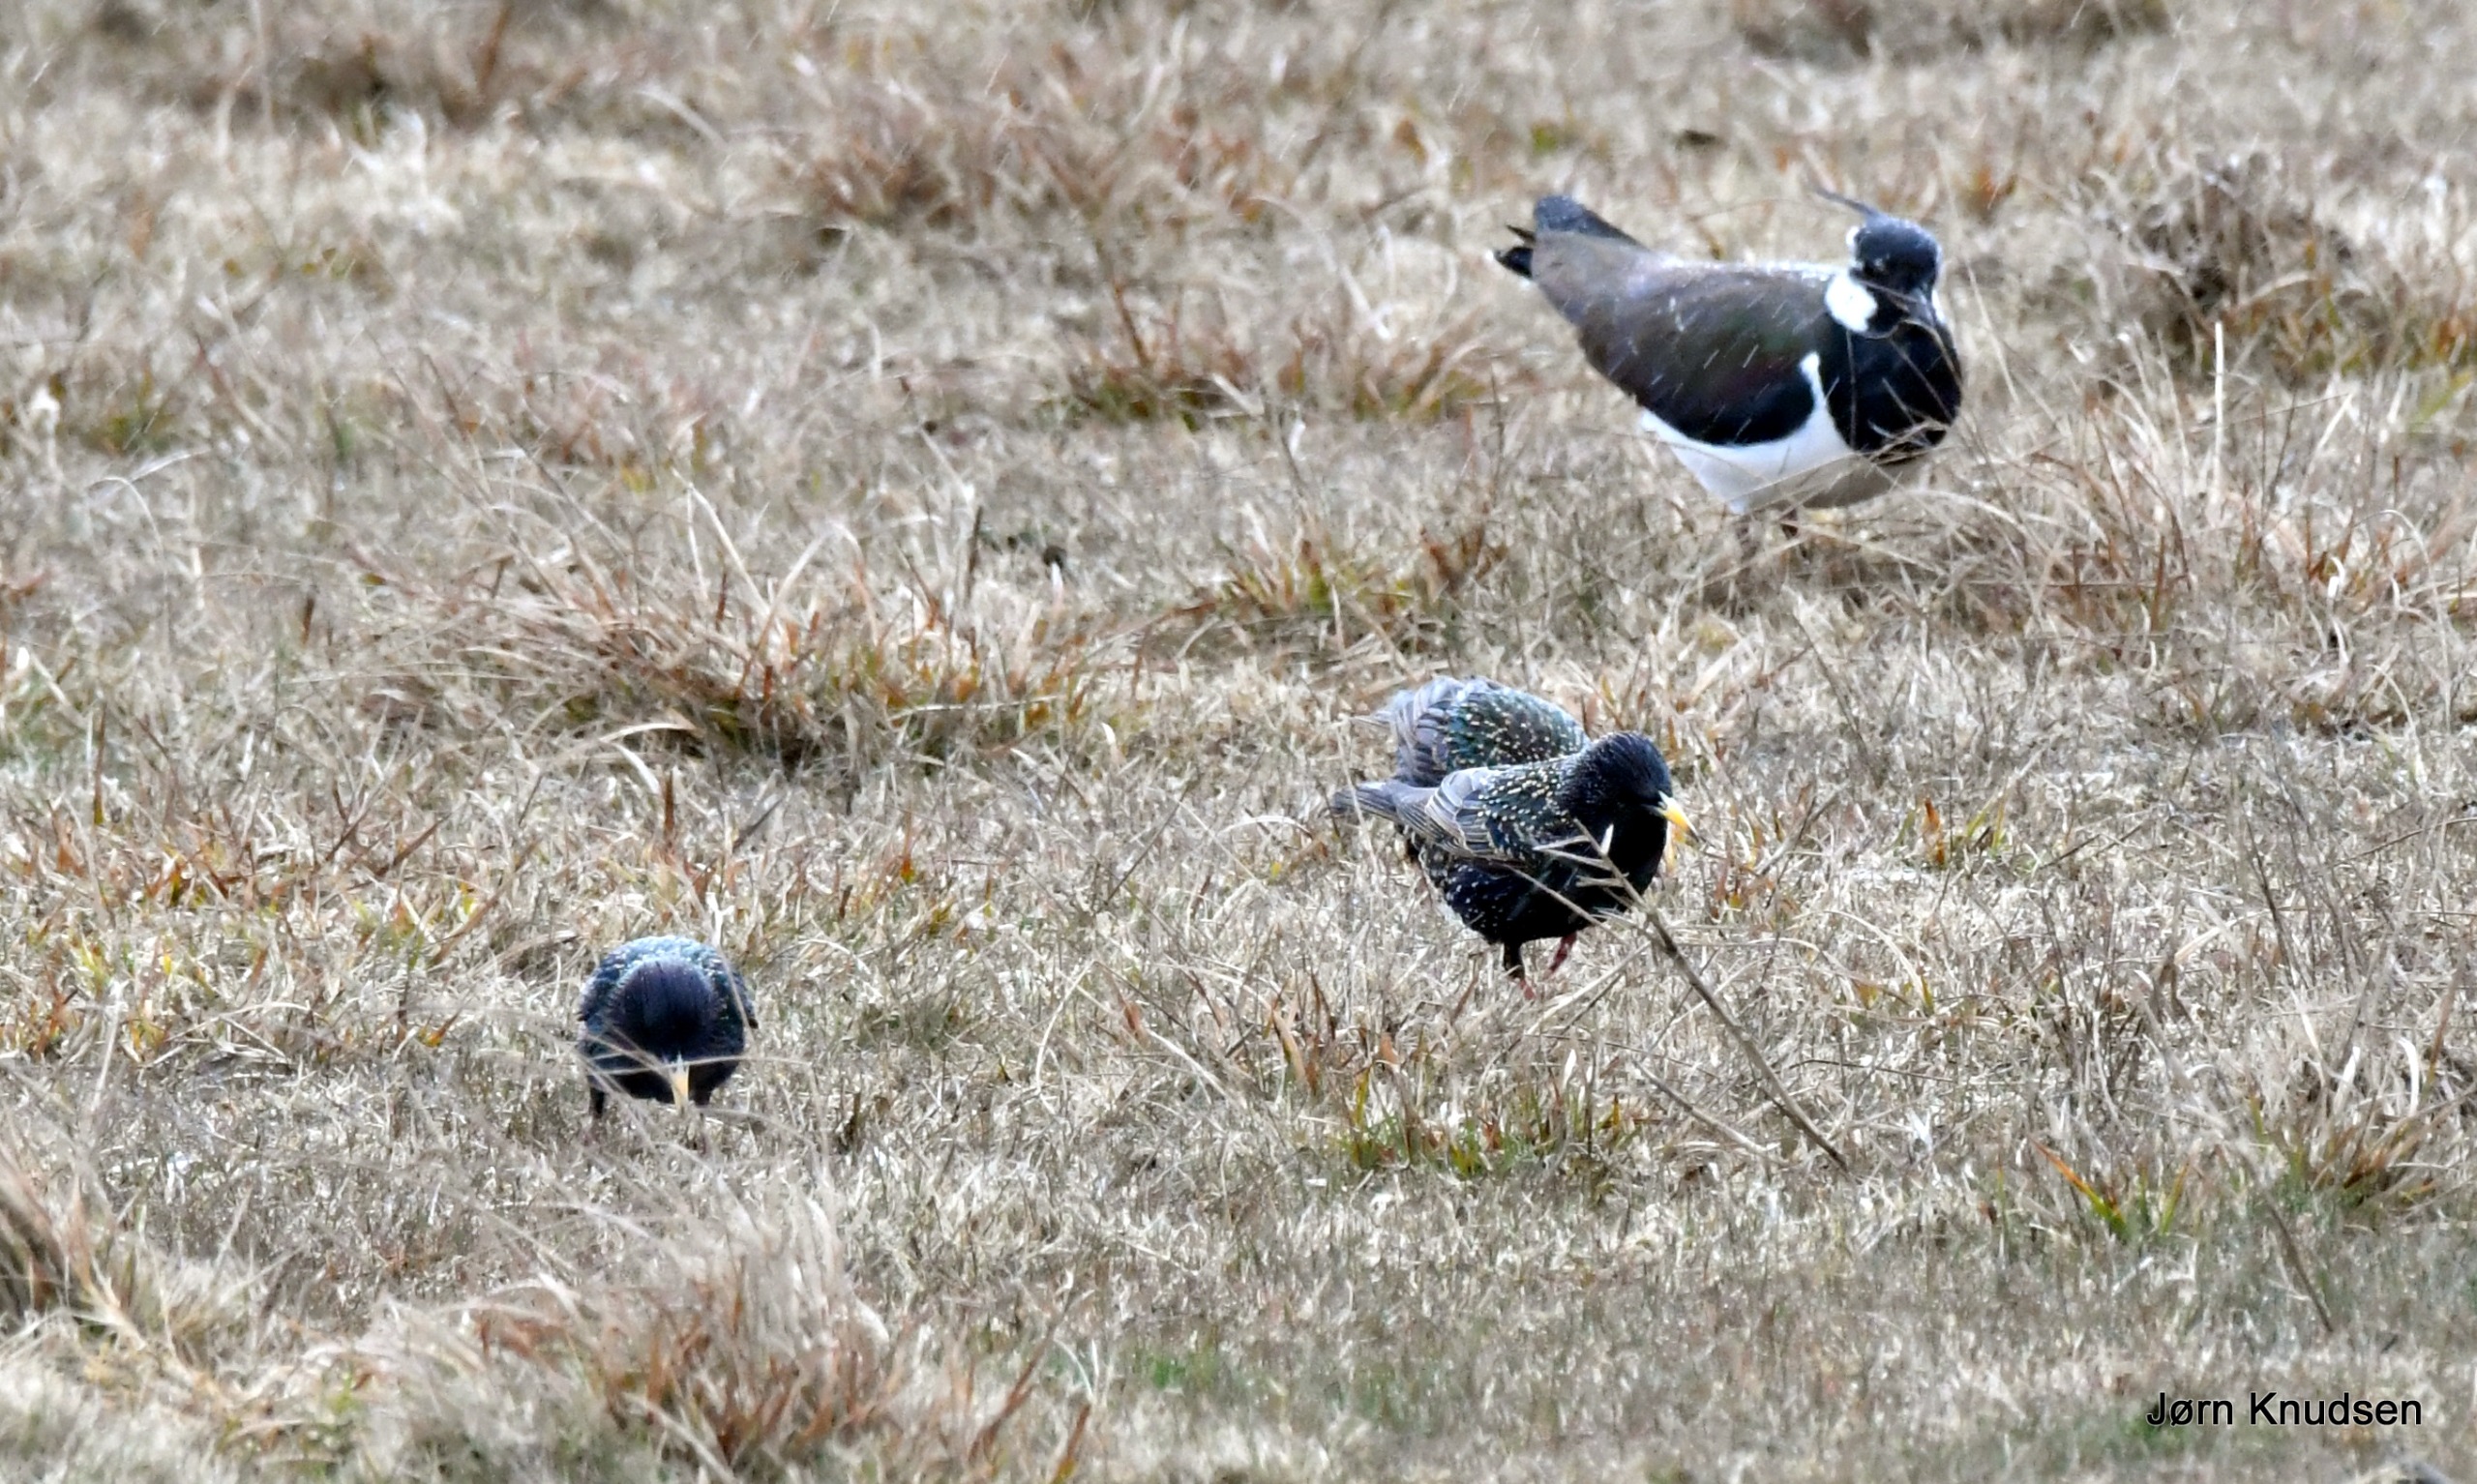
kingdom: Animalia
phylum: Chordata
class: Aves
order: Charadriiformes
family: Charadriidae
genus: Vanellus
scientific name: Vanellus vanellus
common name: Vibe
